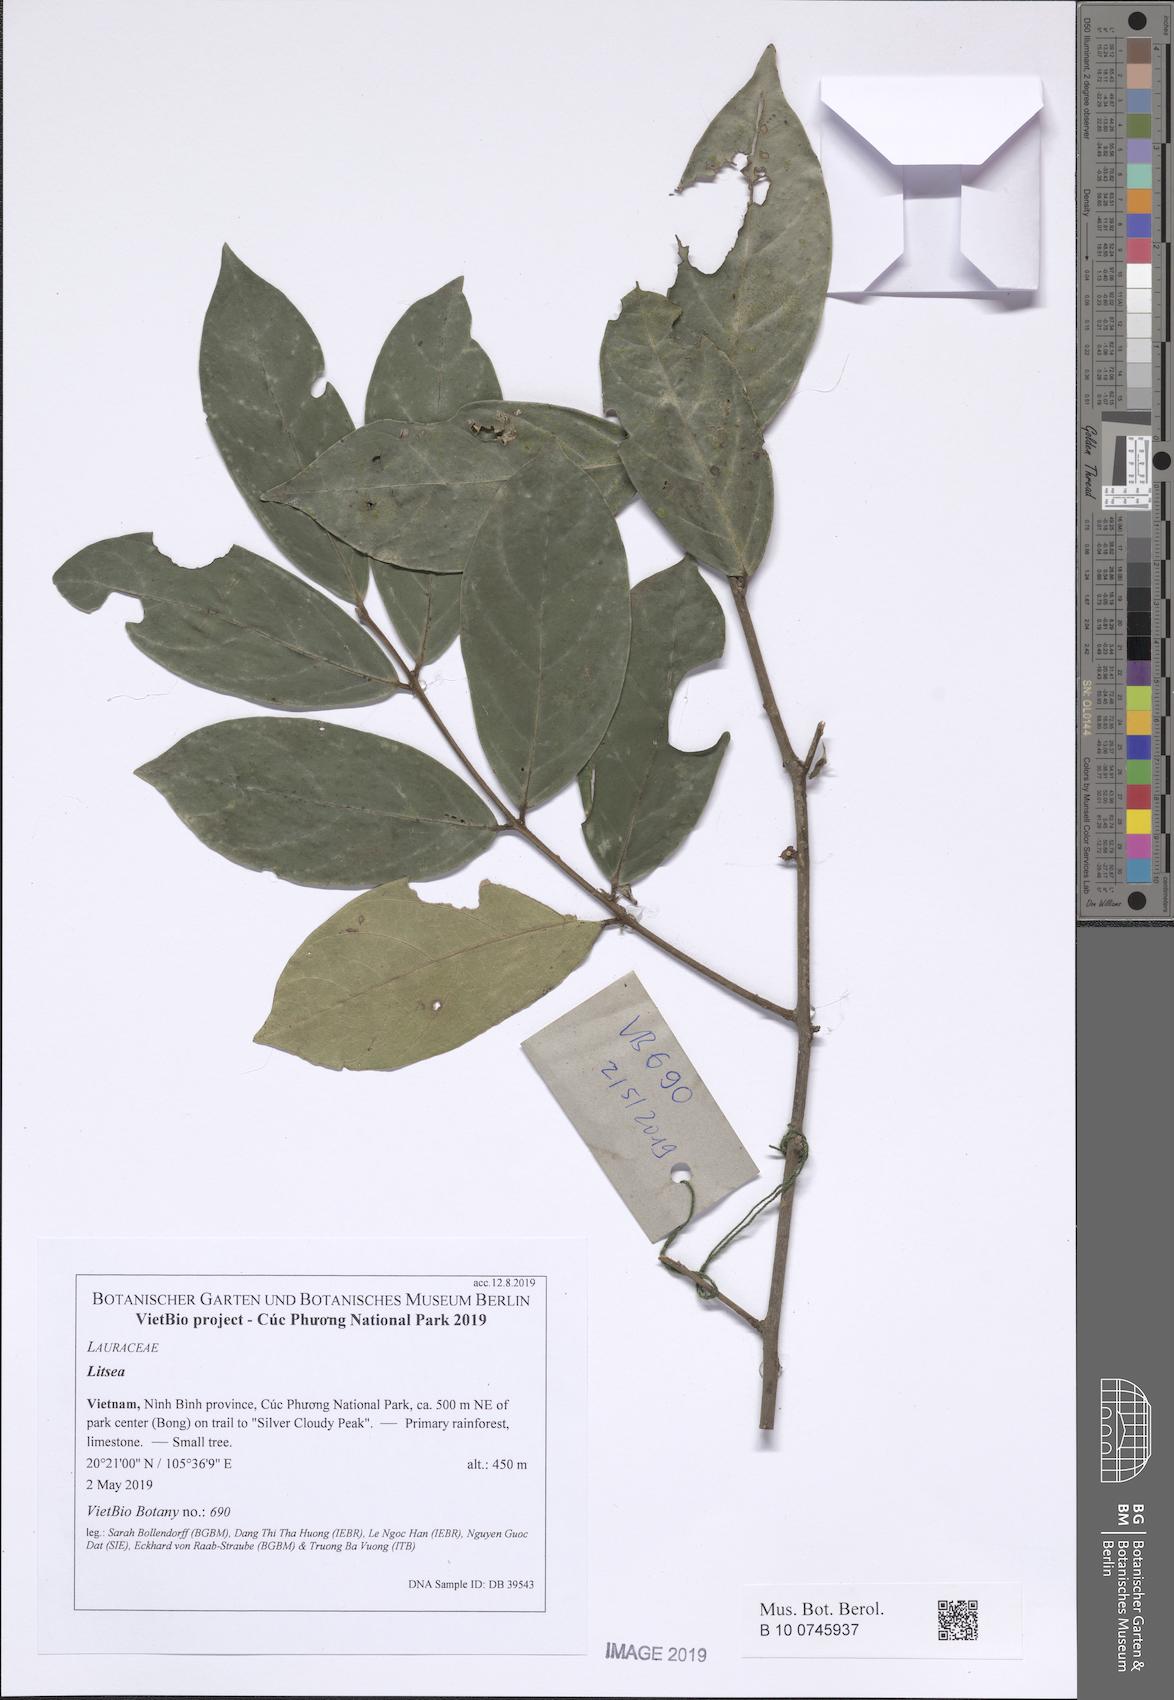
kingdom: Plantae
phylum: Tracheophyta
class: Magnoliopsida
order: Laurales
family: Lauraceae
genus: Litsea
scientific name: Litsea
